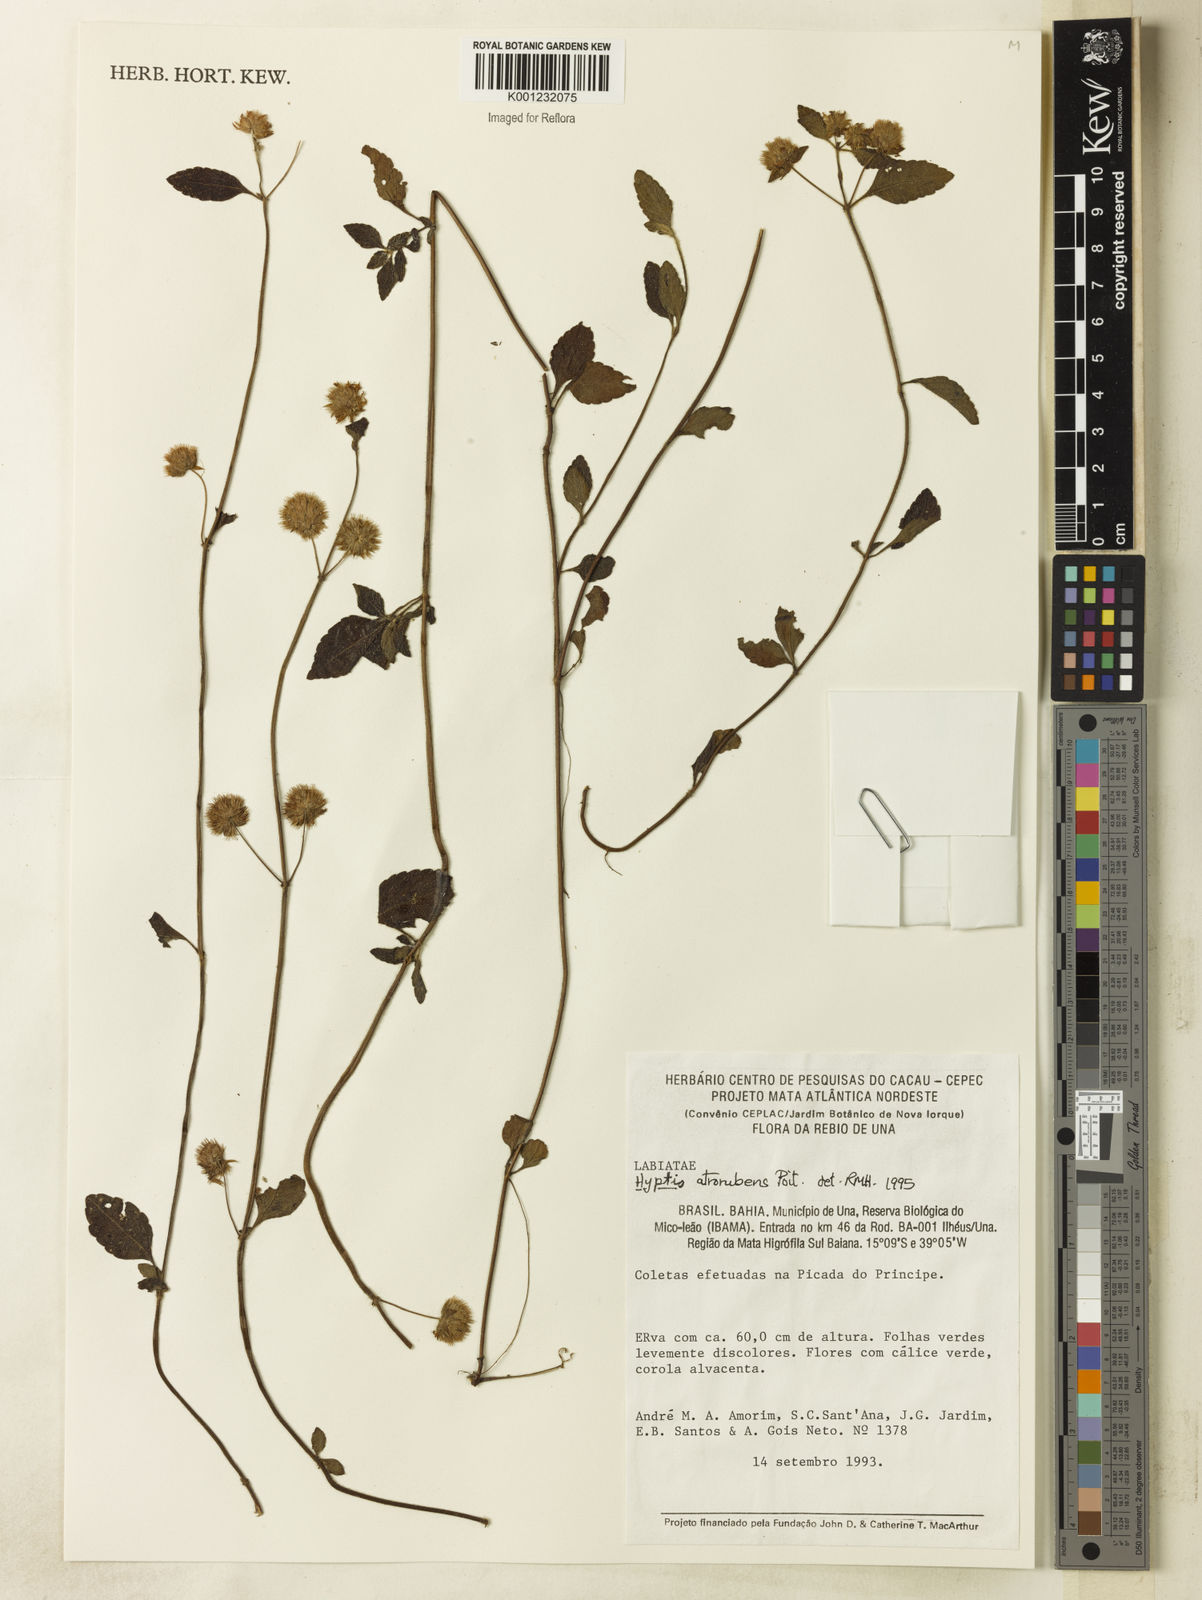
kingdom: Plantae
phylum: Tracheophyta
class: Magnoliopsida
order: Lamiales
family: Lamiaceae
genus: Hyptis
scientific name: Hyptis atrorubens
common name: Lanmant
